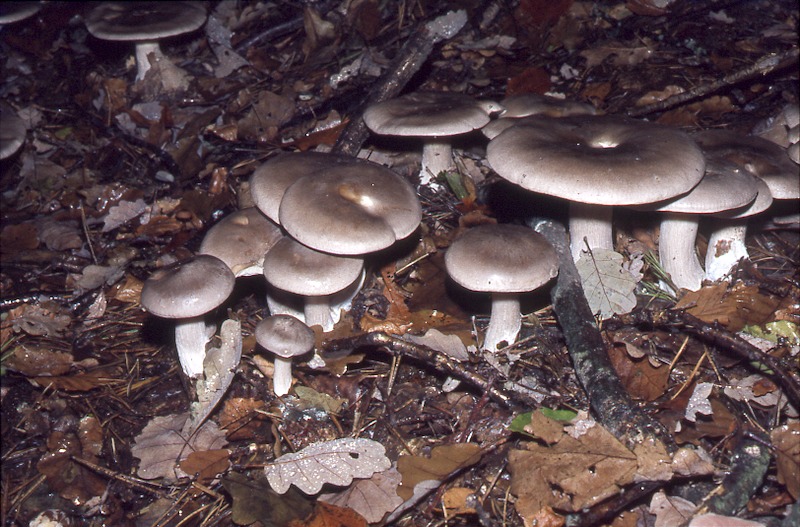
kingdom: Fungi
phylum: Basidiomycota
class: Agaricomycetes
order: Agaricales
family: Tricholomataceae
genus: Clitocybe
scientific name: Clitocybe nebularis
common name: Clouded agaric
